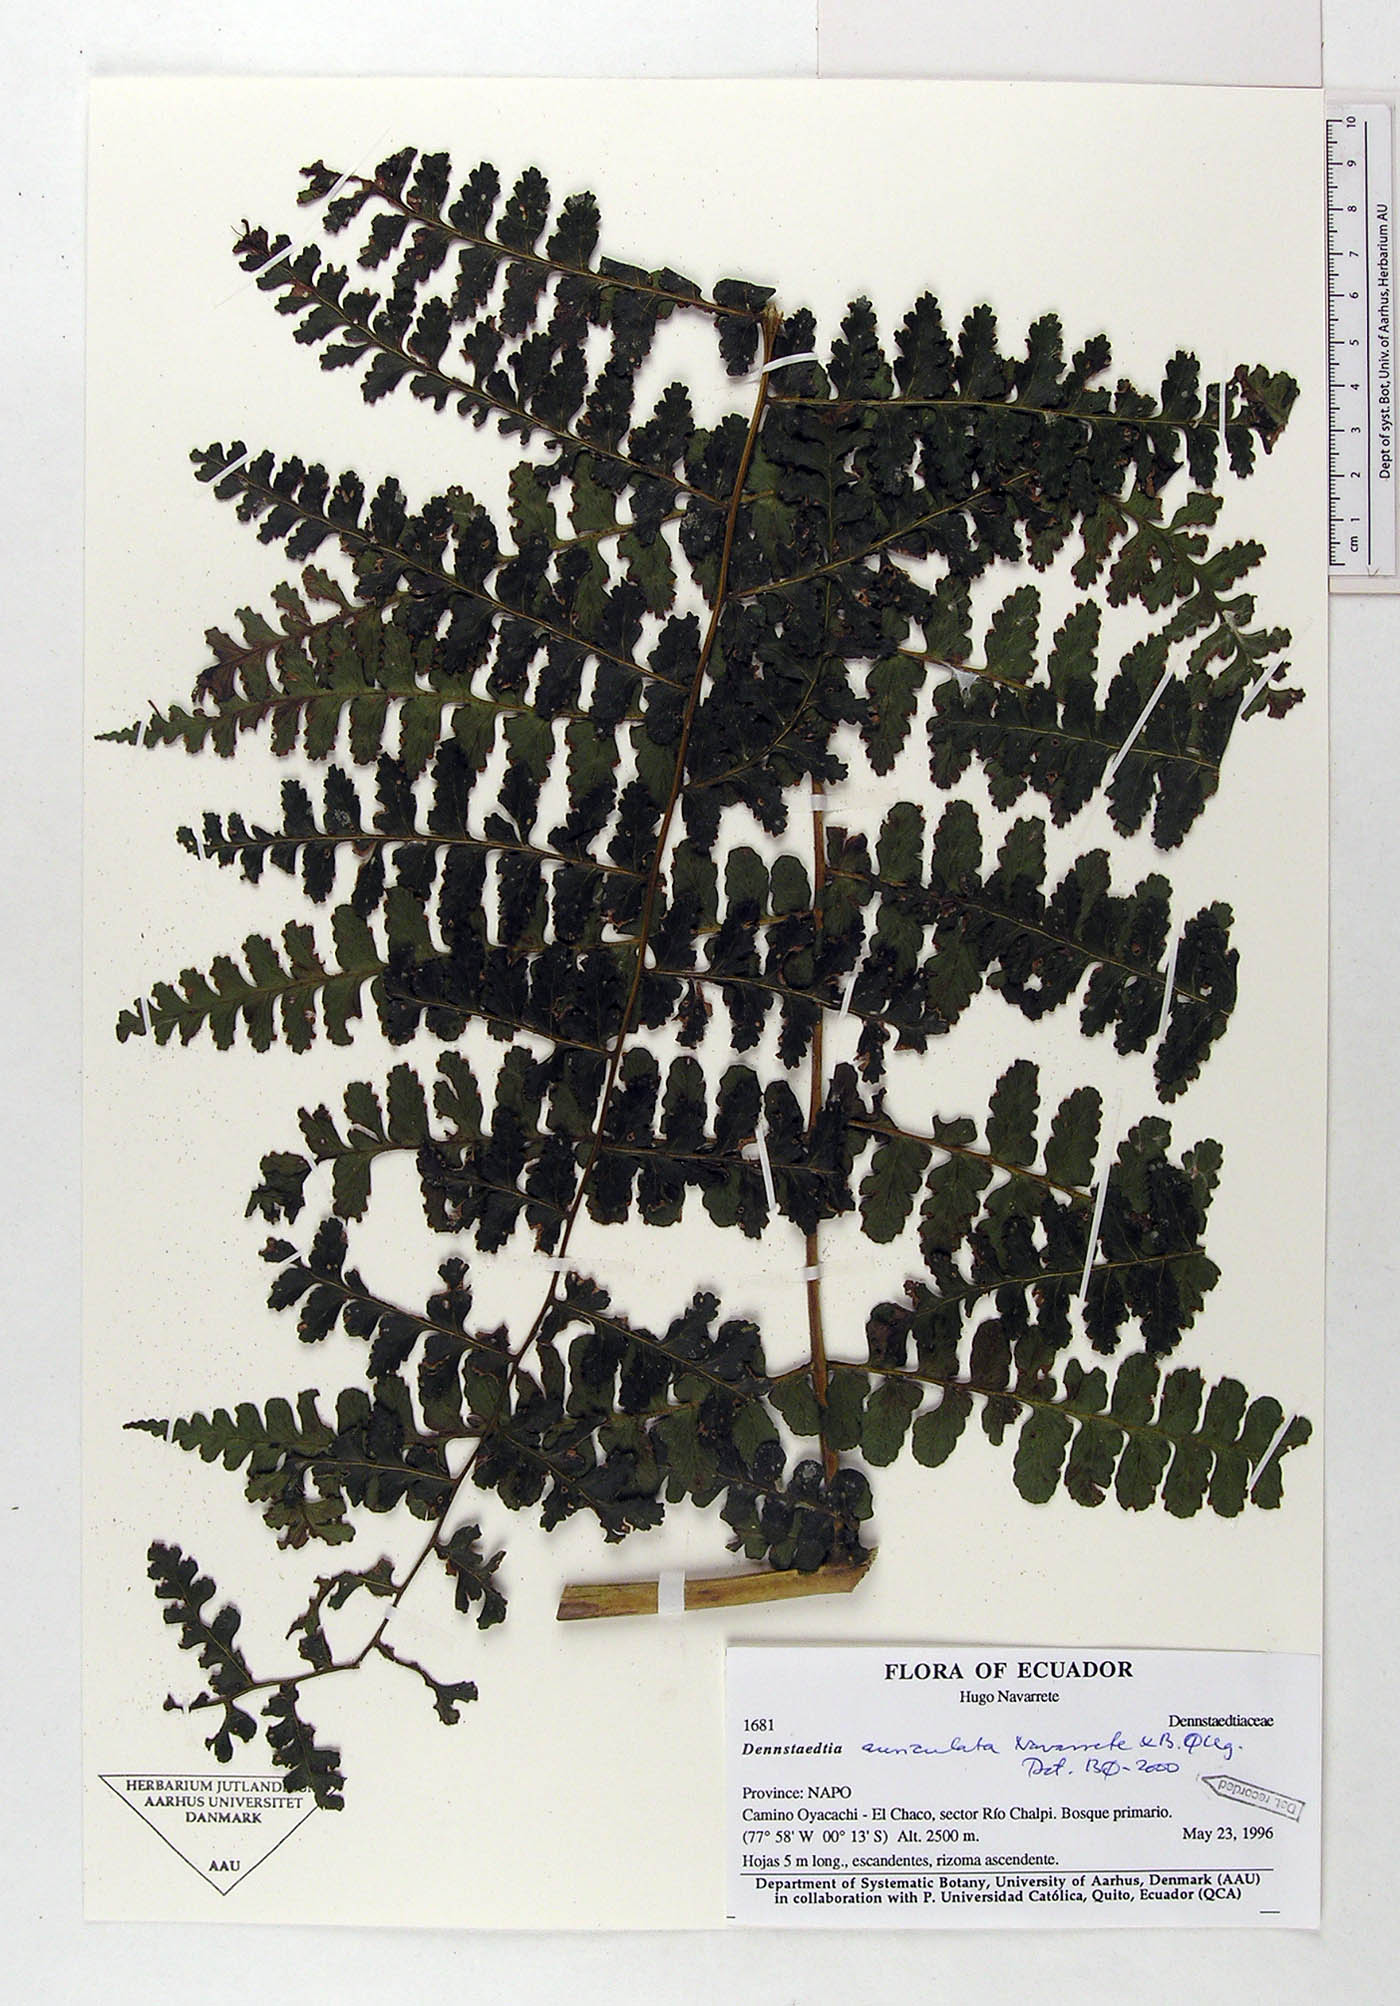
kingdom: Plantae
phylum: Tracheophyta
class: Polypodiopsida
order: Polypodiales
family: Dennstaedtiaceae
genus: Dennstaedtia
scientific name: Dennstaedtia auriculata
